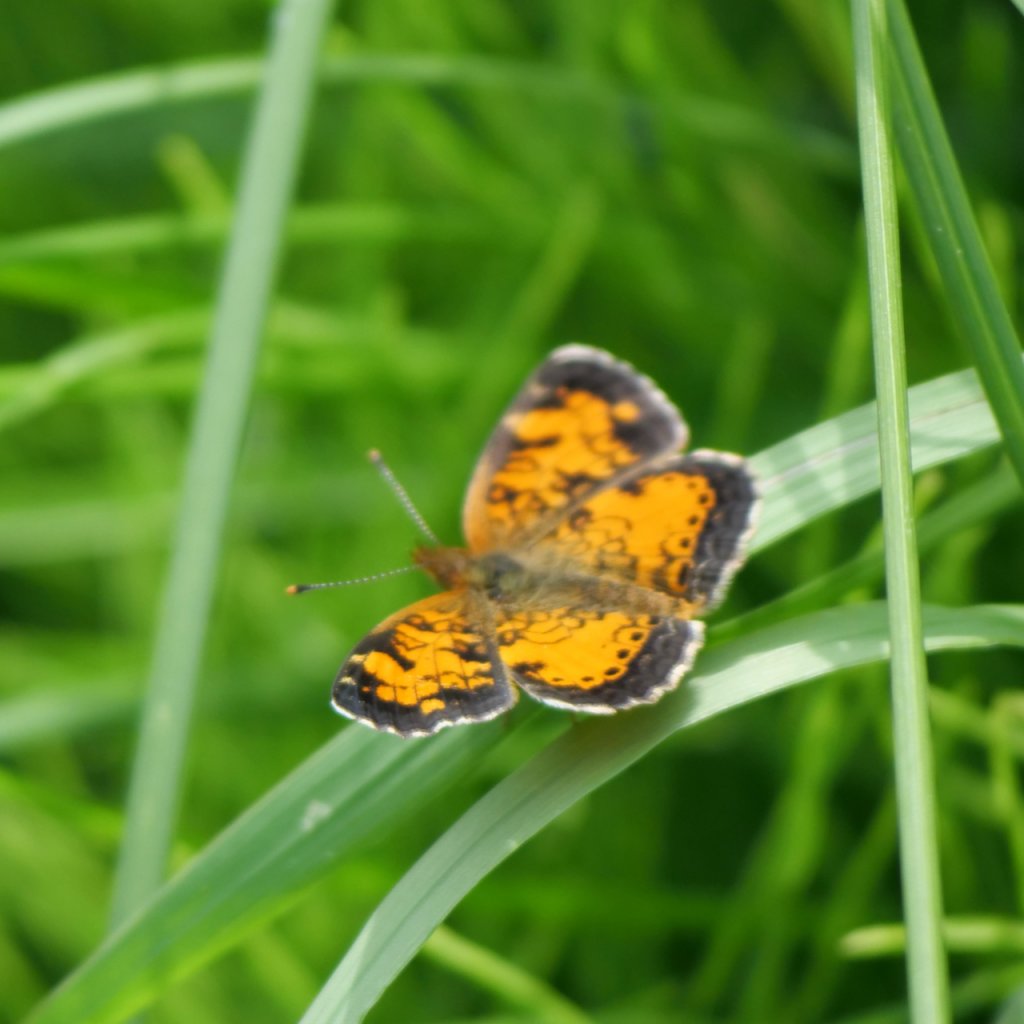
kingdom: Animalia
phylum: Arthropoda
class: Insecta
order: Lepidoptera
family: Nymphalidae
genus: Phyciodes
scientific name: Phyciodes tharos
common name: Northern Crescent
